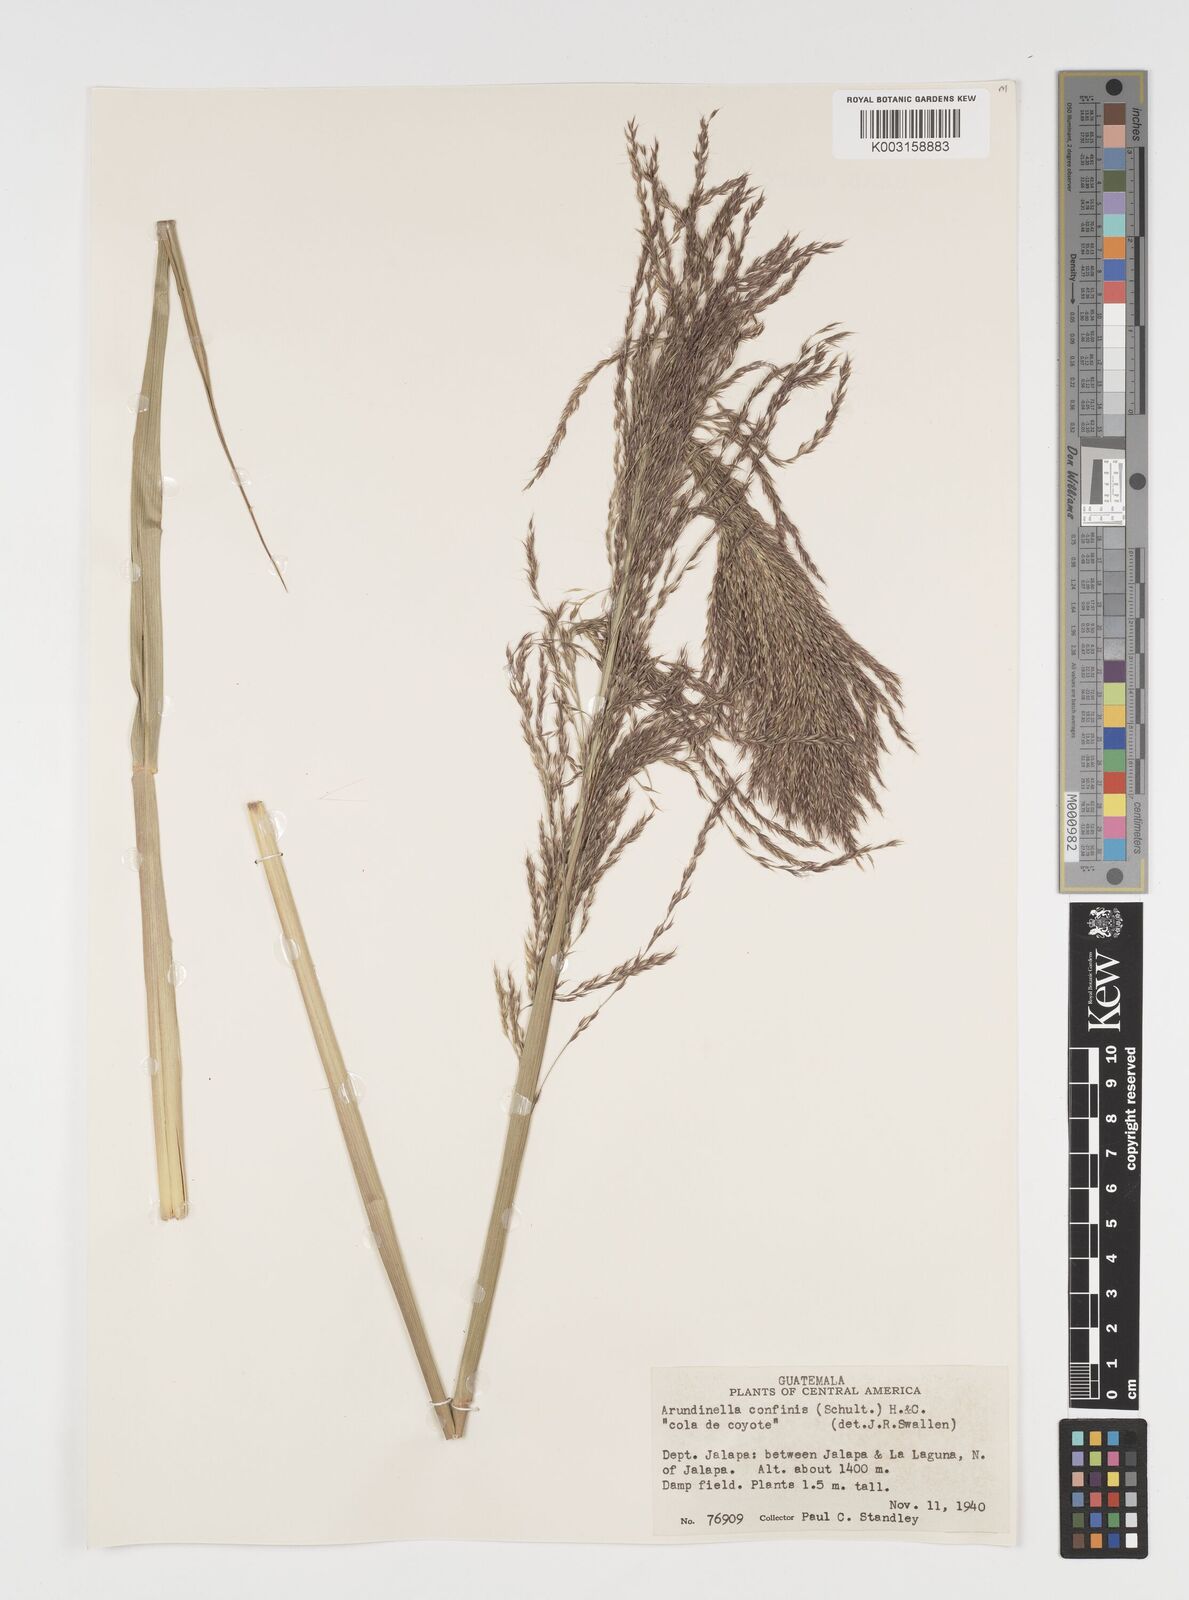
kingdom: Plantae
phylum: Tracheophyta
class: Liliopsida
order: Poales
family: Poaceae
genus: Arundinella
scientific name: Arundinella hispida
